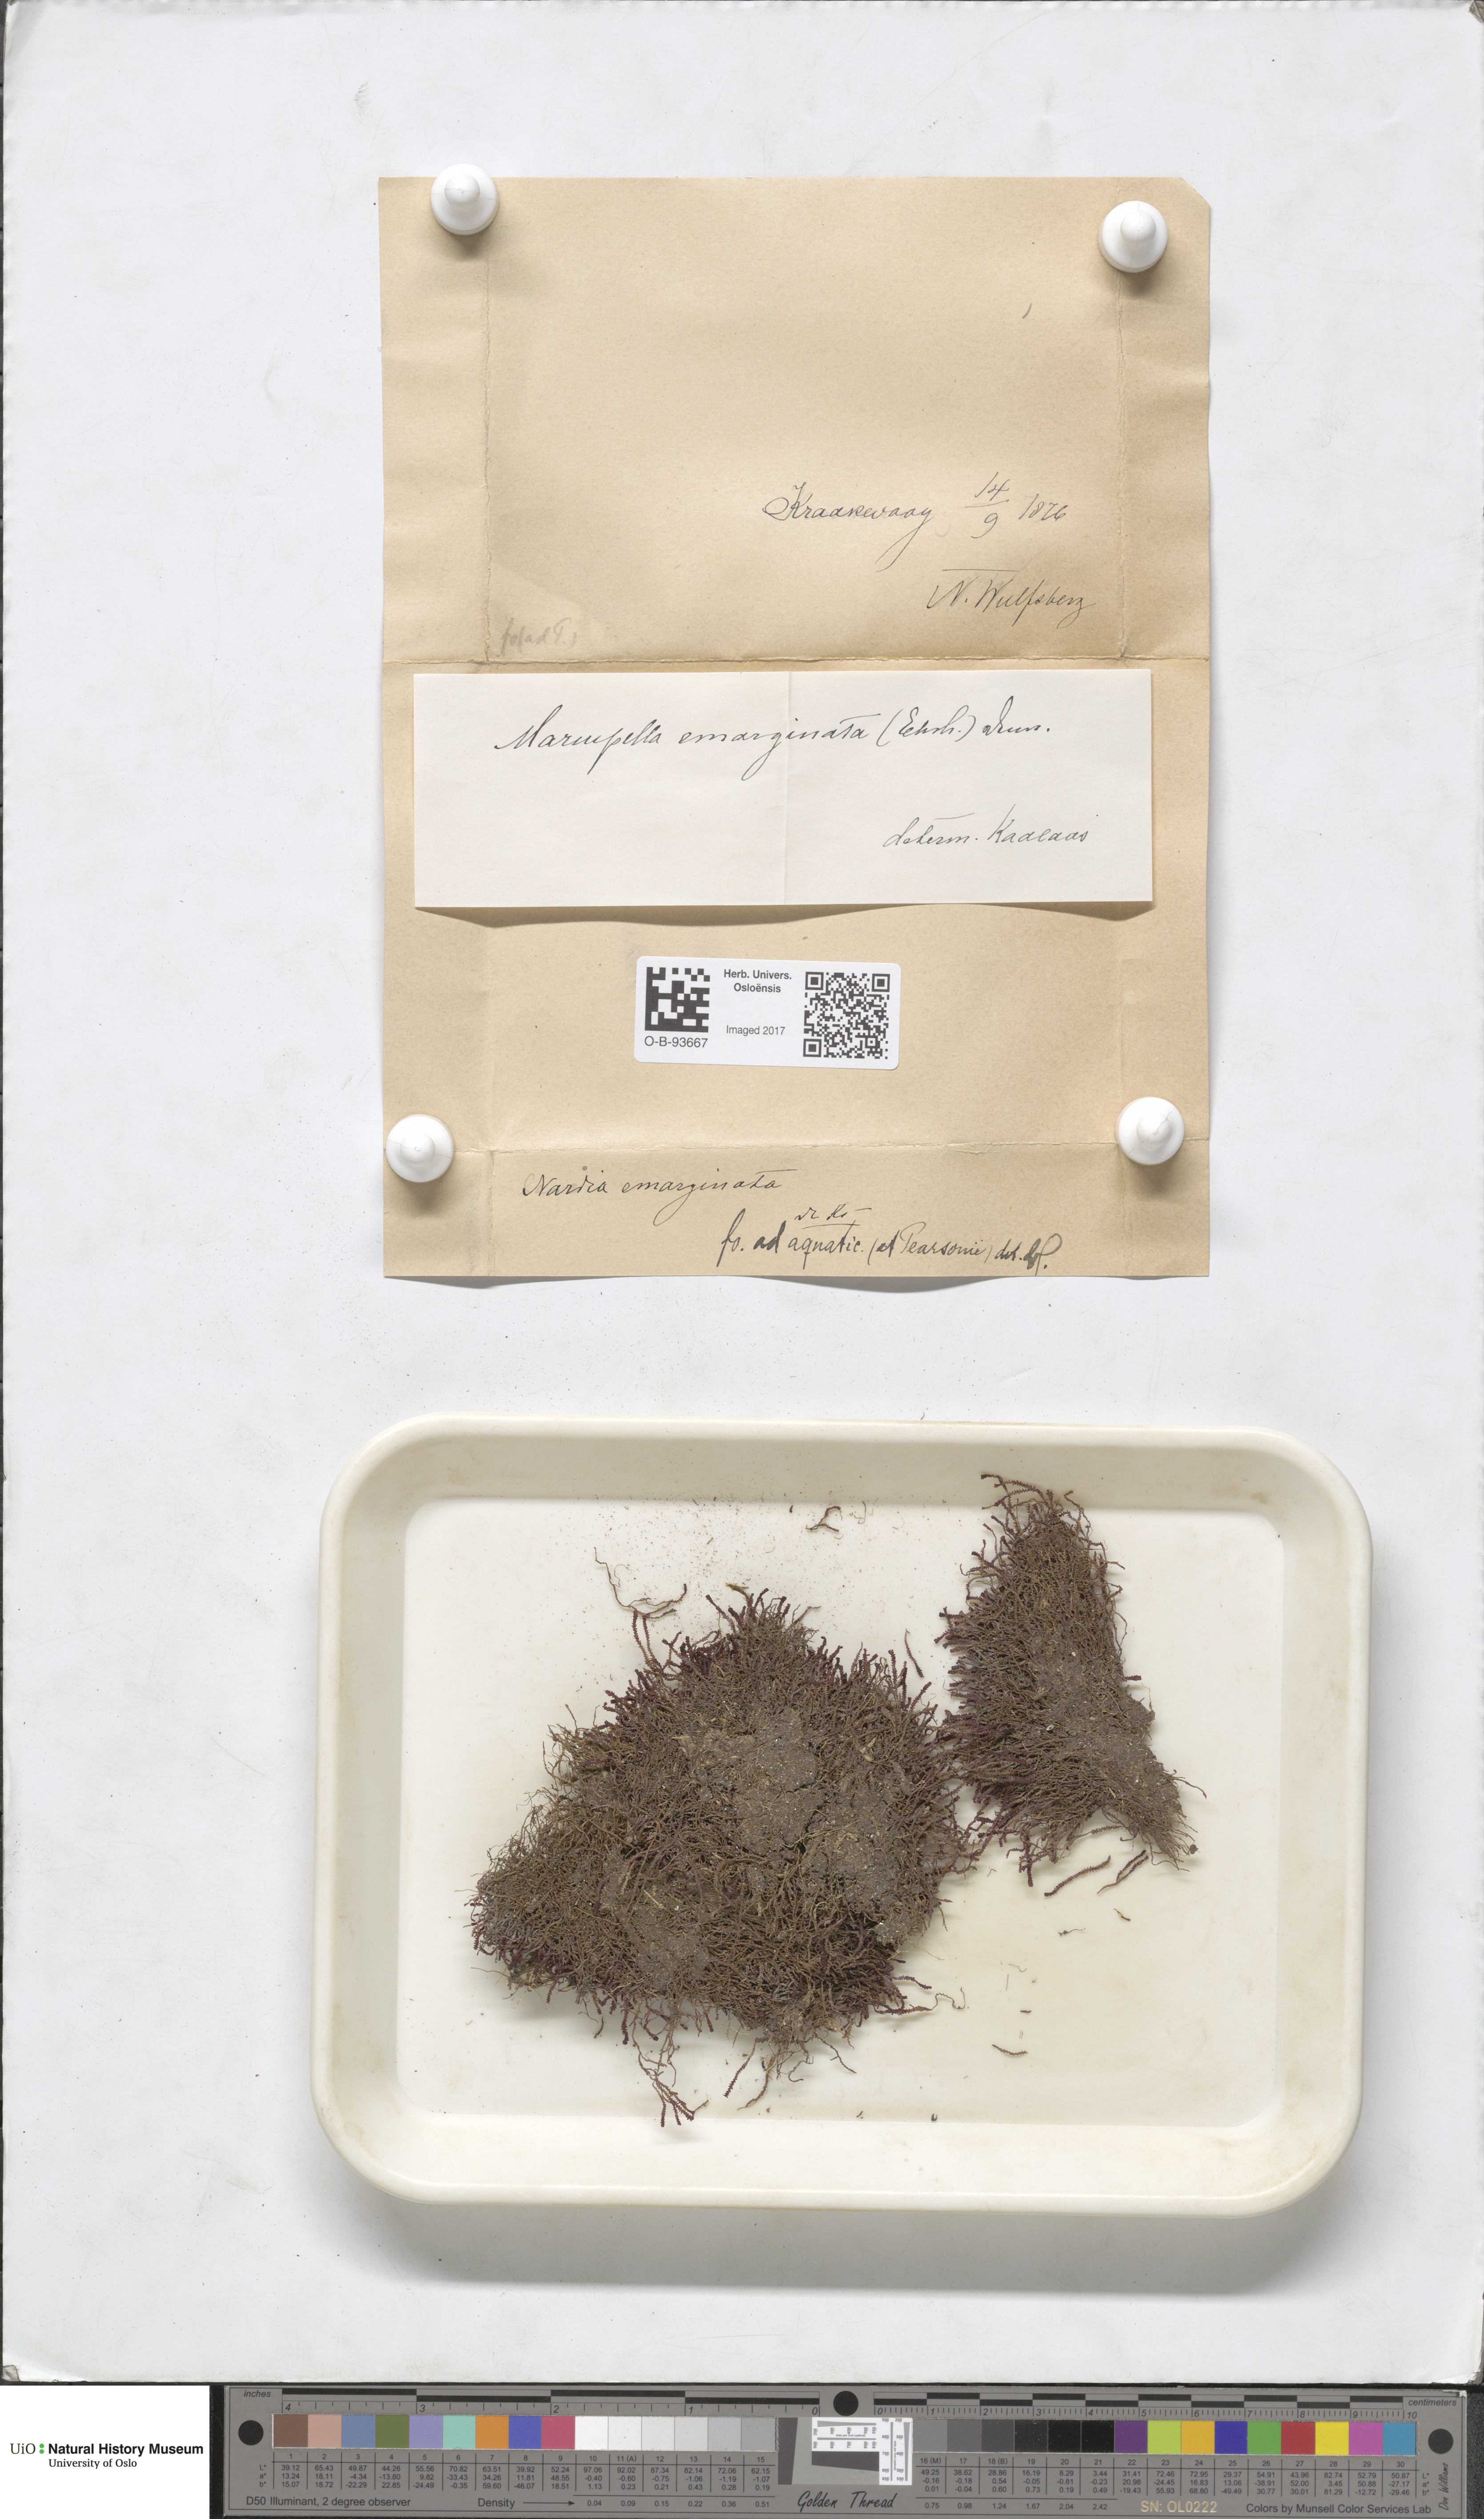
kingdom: Plantae
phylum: Marchantiophyta
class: Jungermanniopsida
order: Jungermanniales
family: Gymnomitriaceae
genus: Marsupella
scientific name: Marsupella emarginata
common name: Notched rustwort
